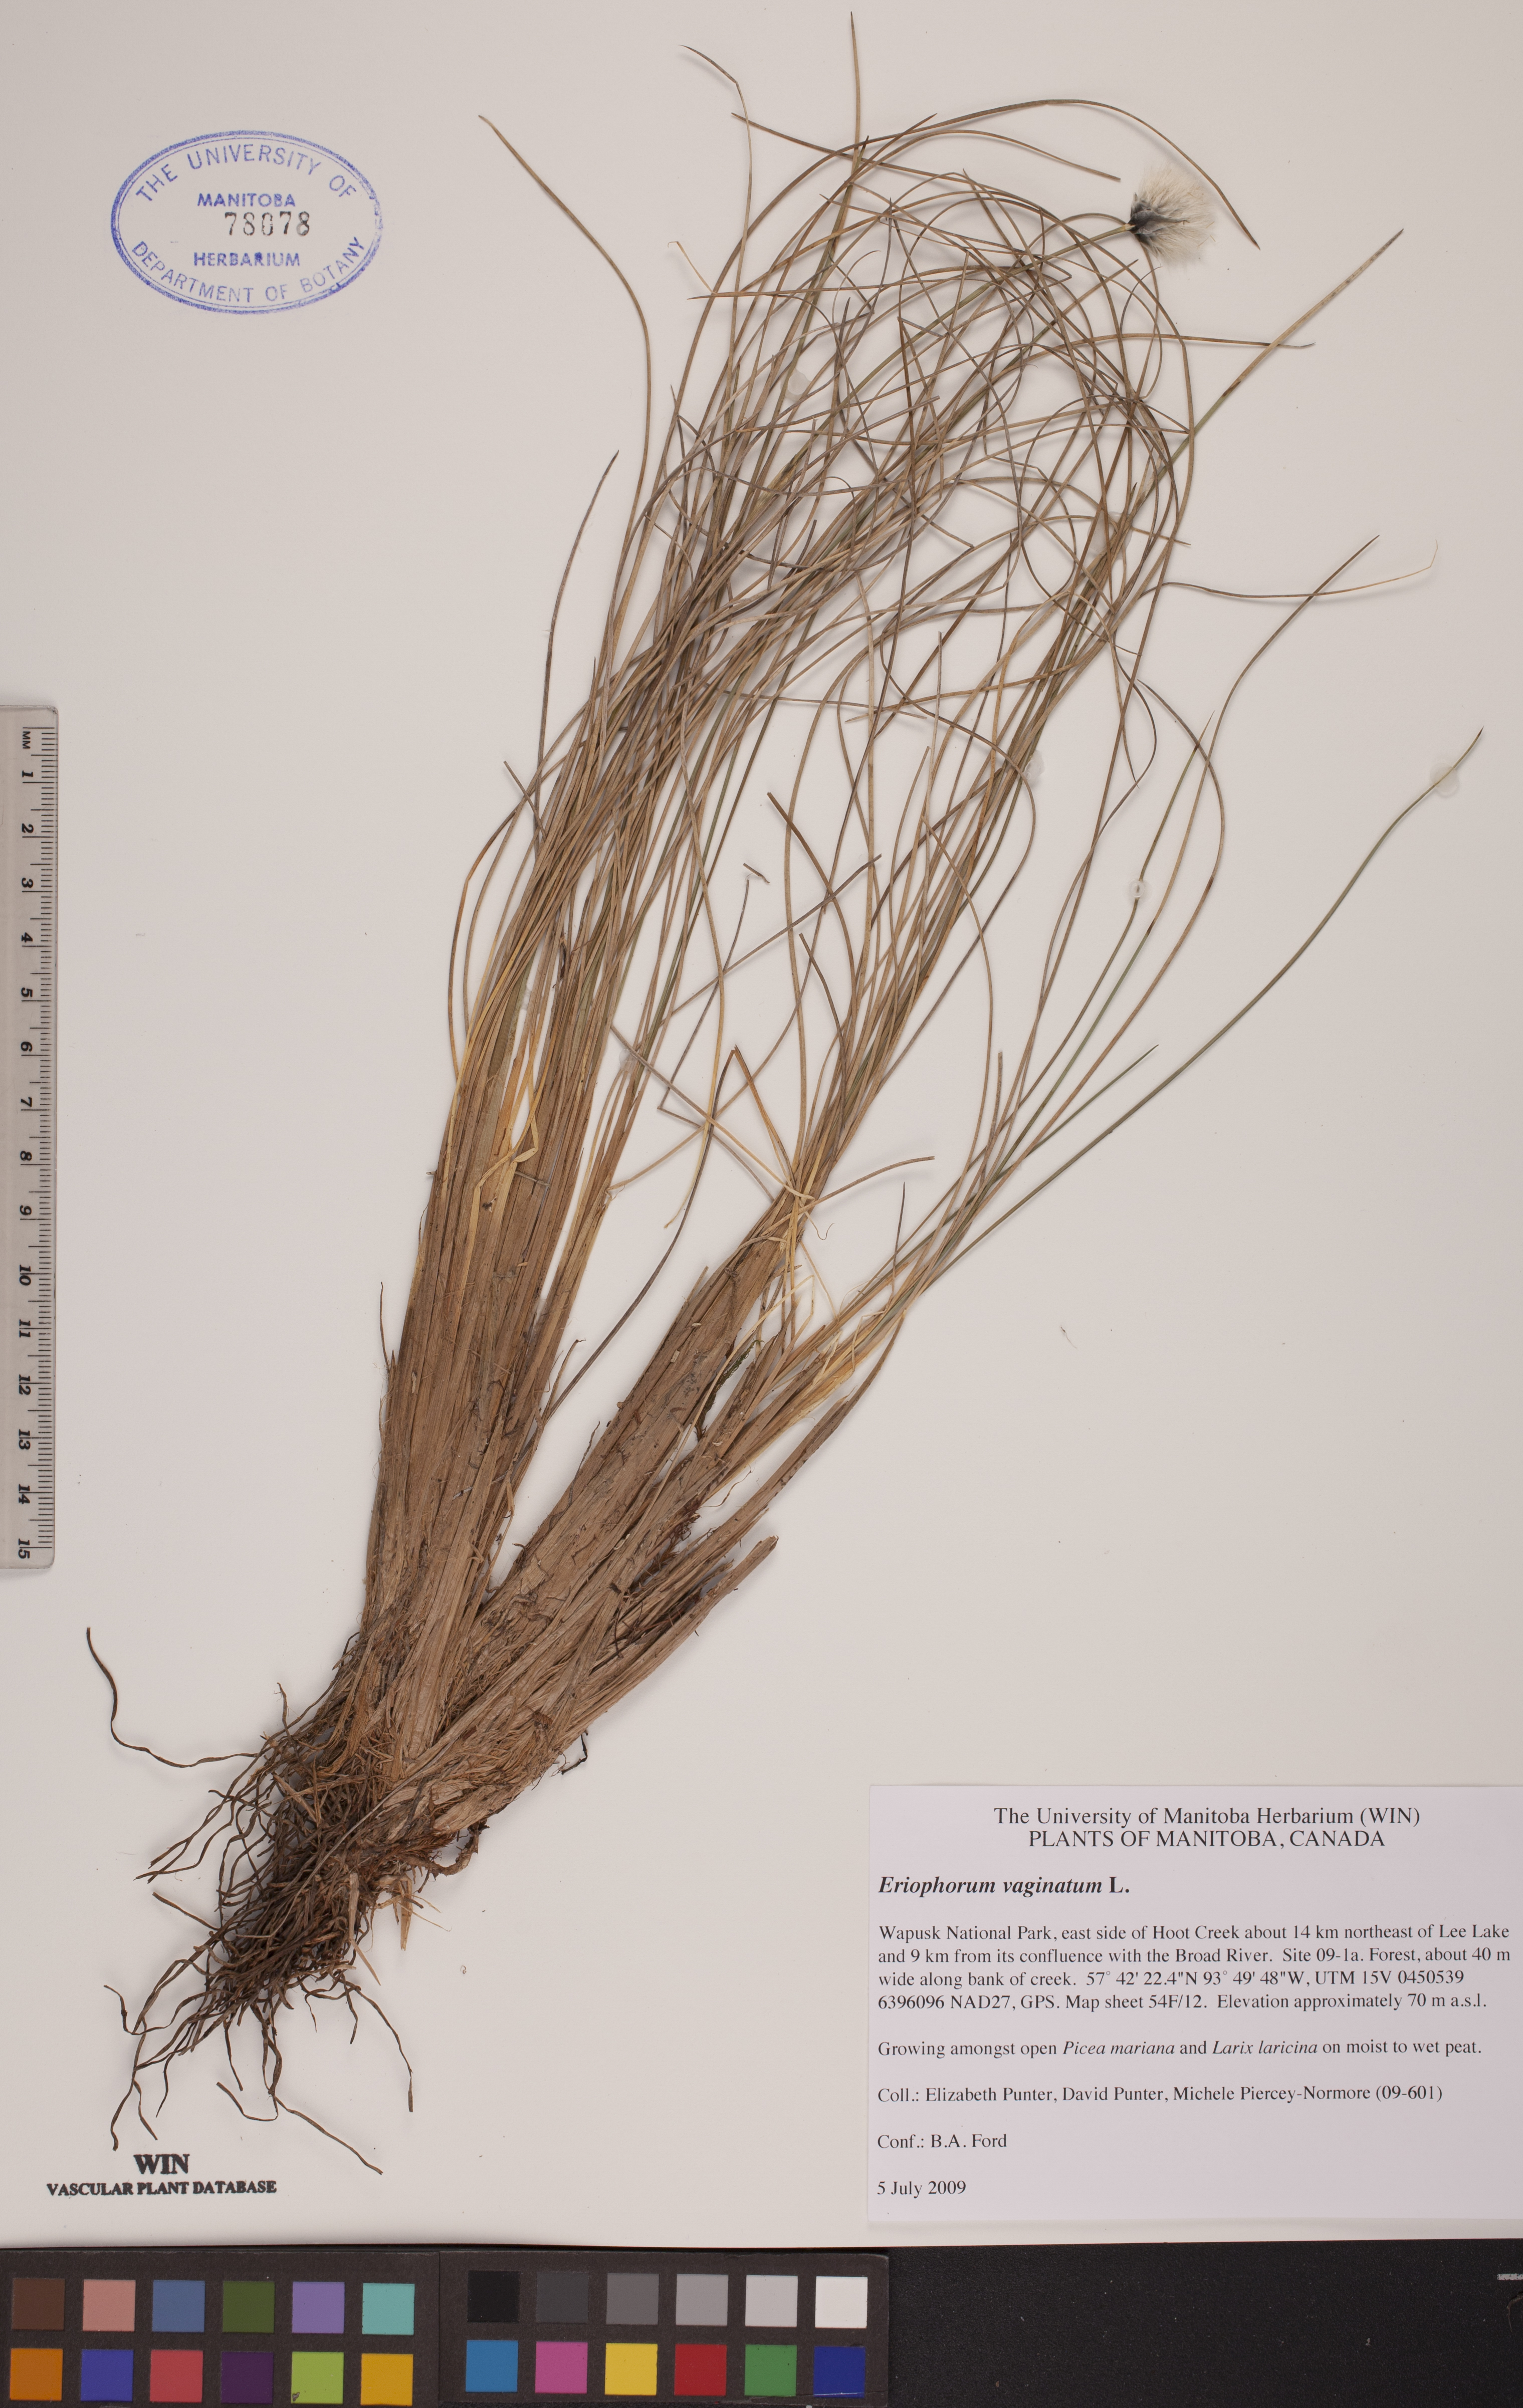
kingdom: Plantae
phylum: Tracheophyta
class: Liliopsida
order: Poales
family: Cyperaceae
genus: Eriophorum
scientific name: Eriophorum vaginatum
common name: Hare's-tail cottongrass
